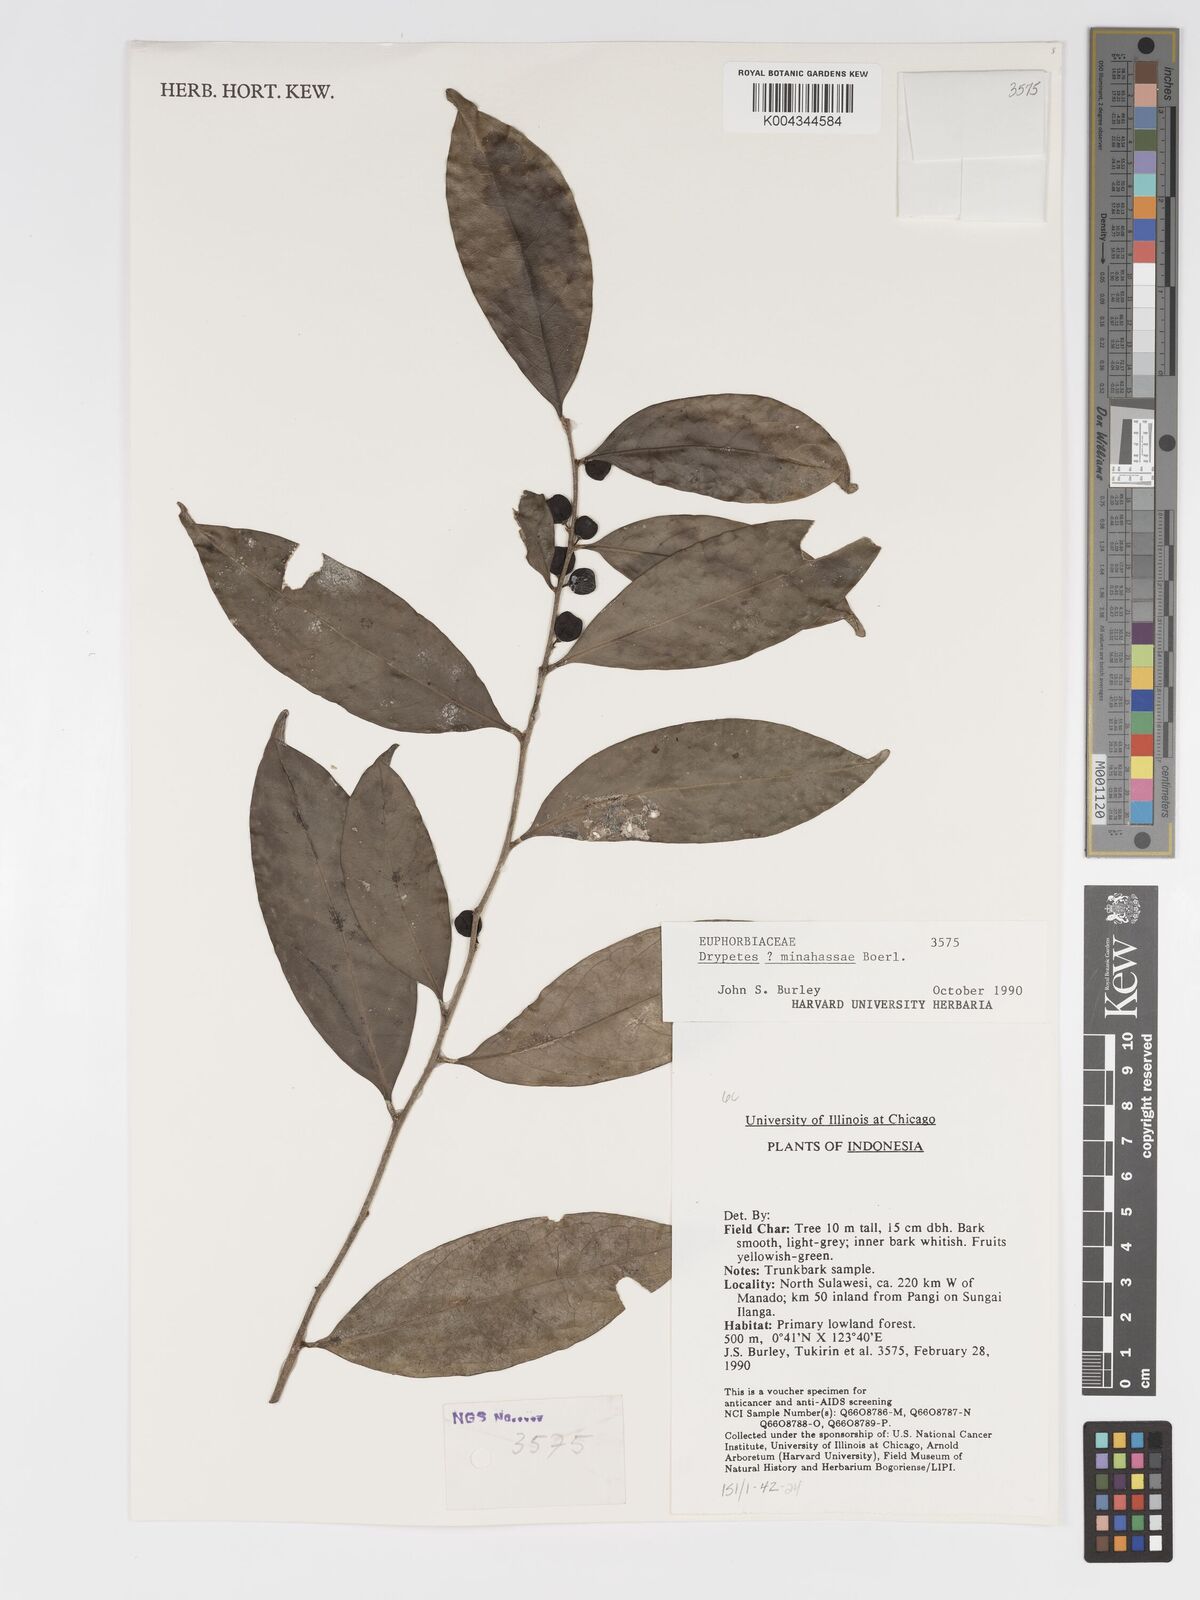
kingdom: Plantae
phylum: Tracheophyta
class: Magnoliopsida
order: Malpighiales
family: Putranjivaceae
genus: Drypetes
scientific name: Drypetes minahassae
